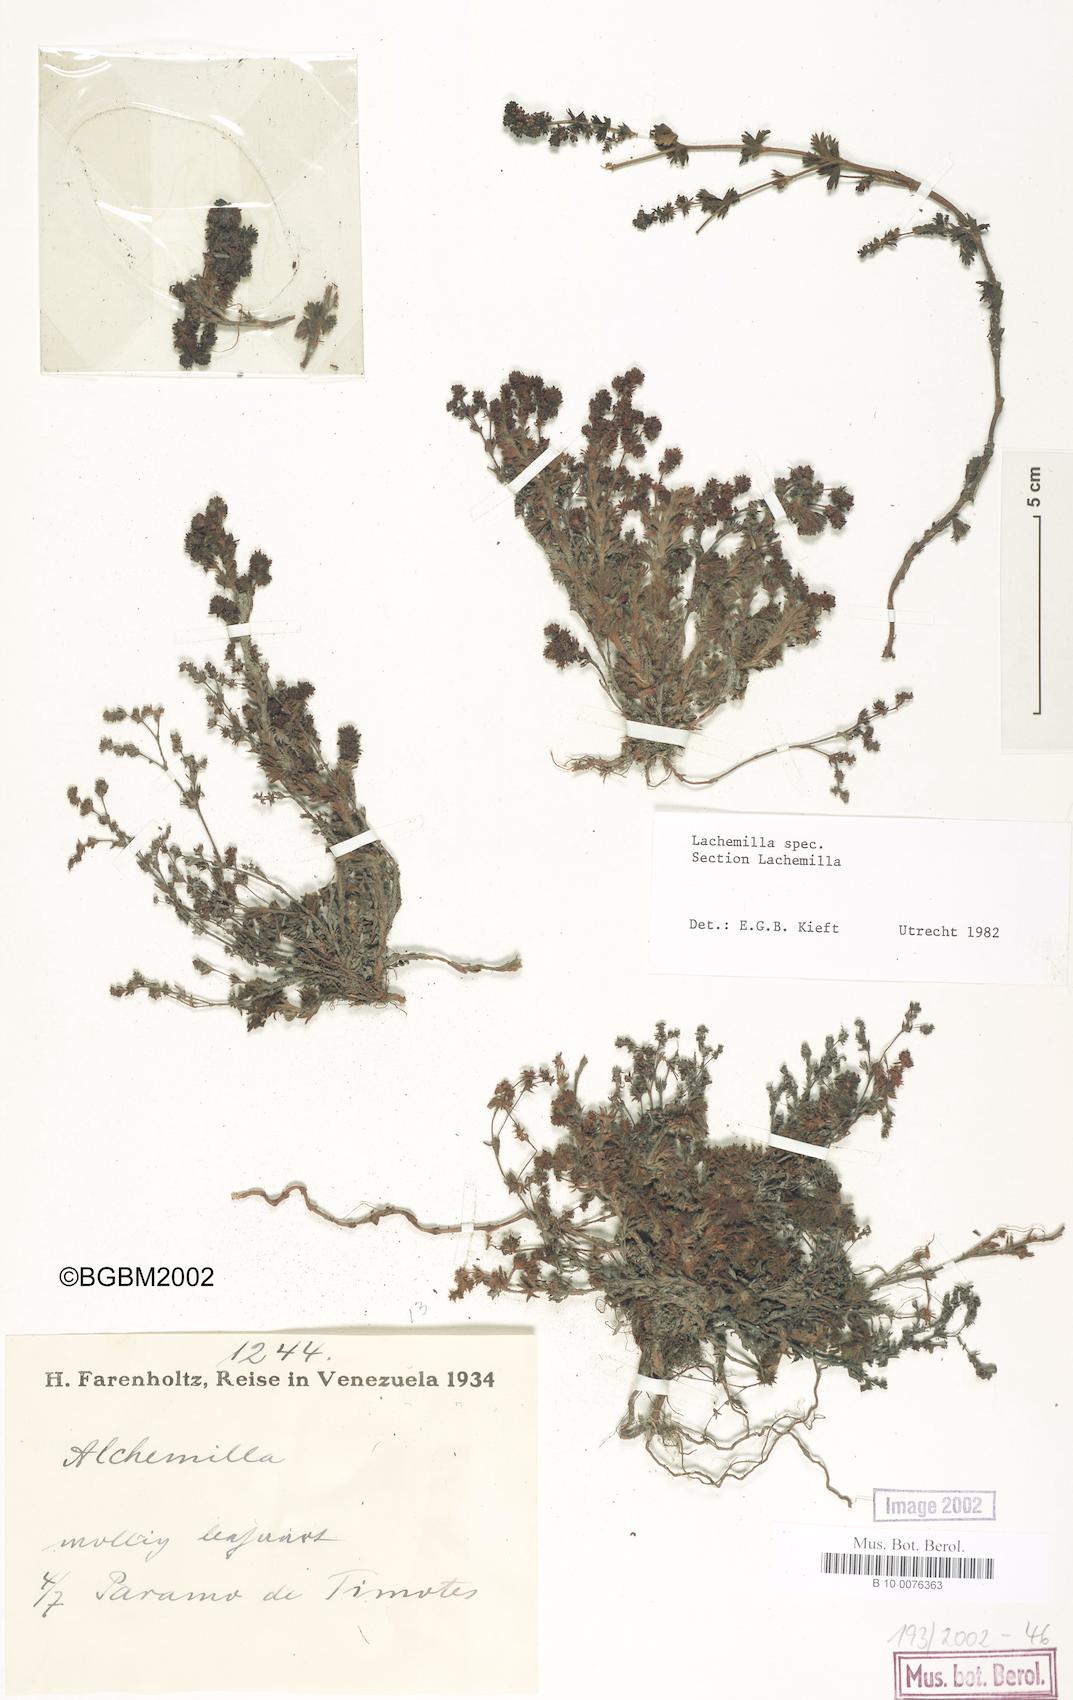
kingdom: Plantae
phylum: Tracheophyta
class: Magnoliopsida
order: Rosales
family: Rosaceae
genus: Lachemilla
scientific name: Lachemilla
